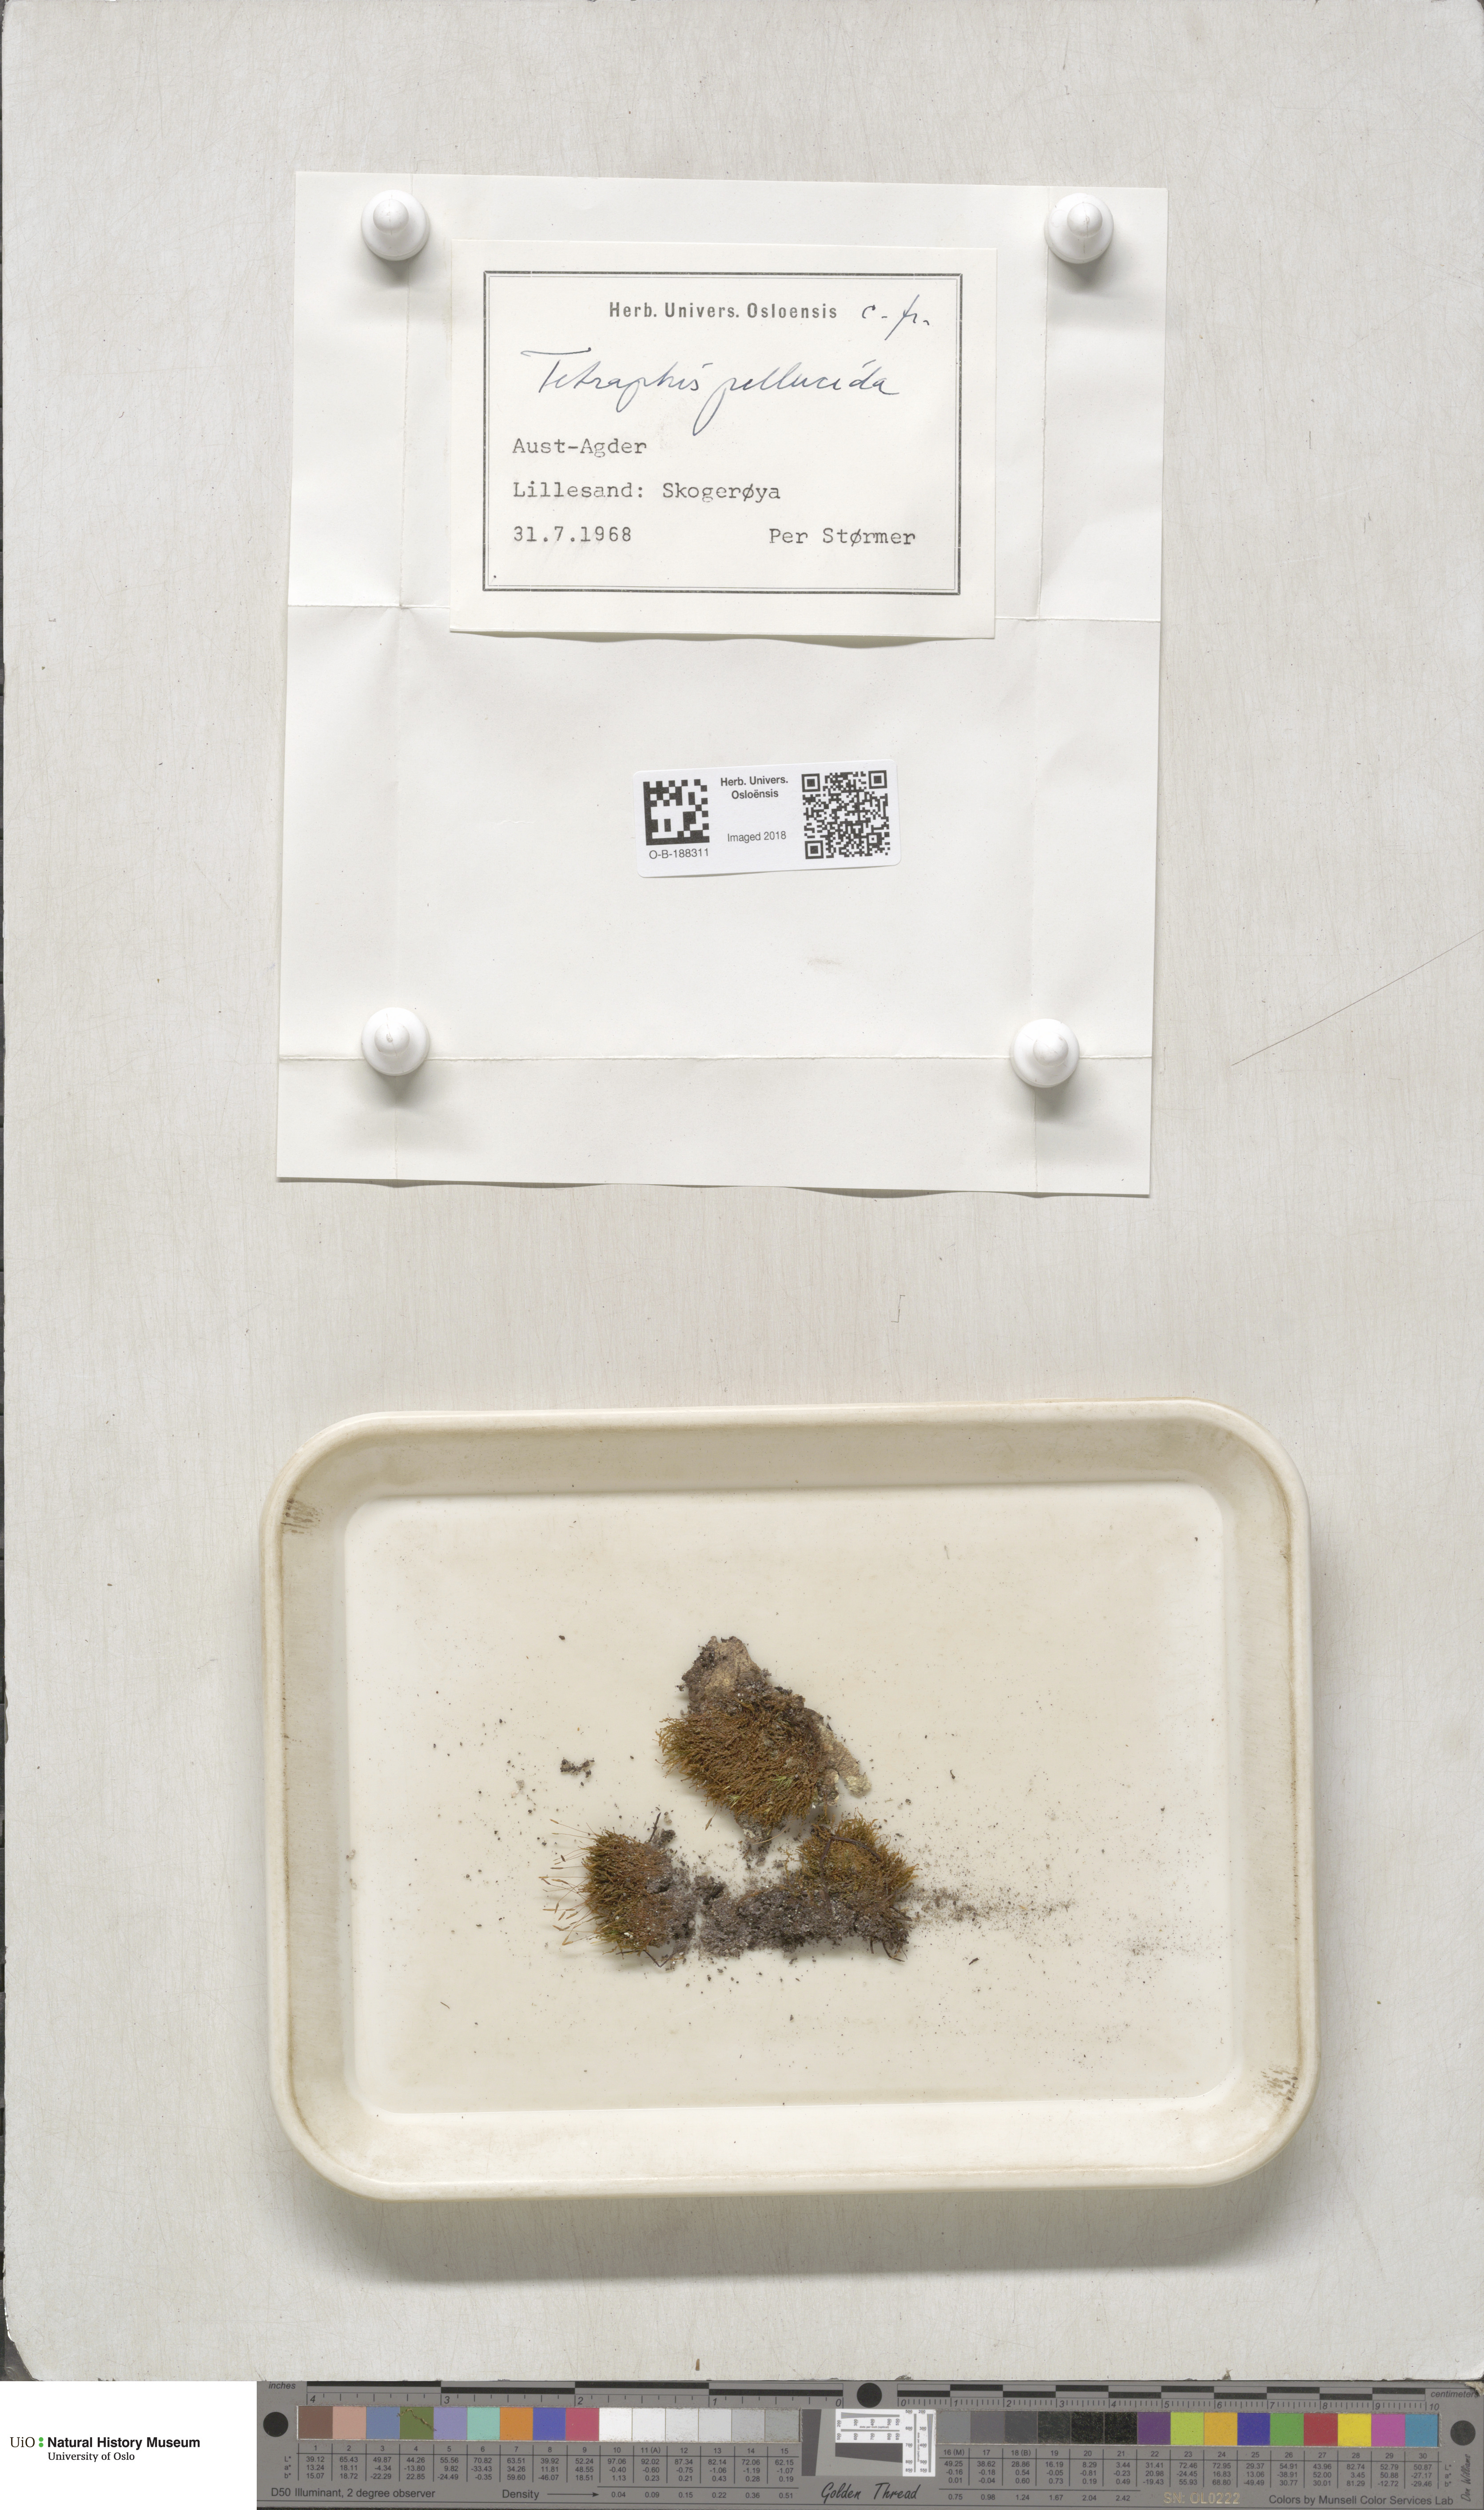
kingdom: Plantae
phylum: Bryophyta
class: Polytrichopsida
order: Tetraphidales
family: Tetraphidaceae
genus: Tetraphis
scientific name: Tetraphis pellucida
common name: Common four-toothed moss
